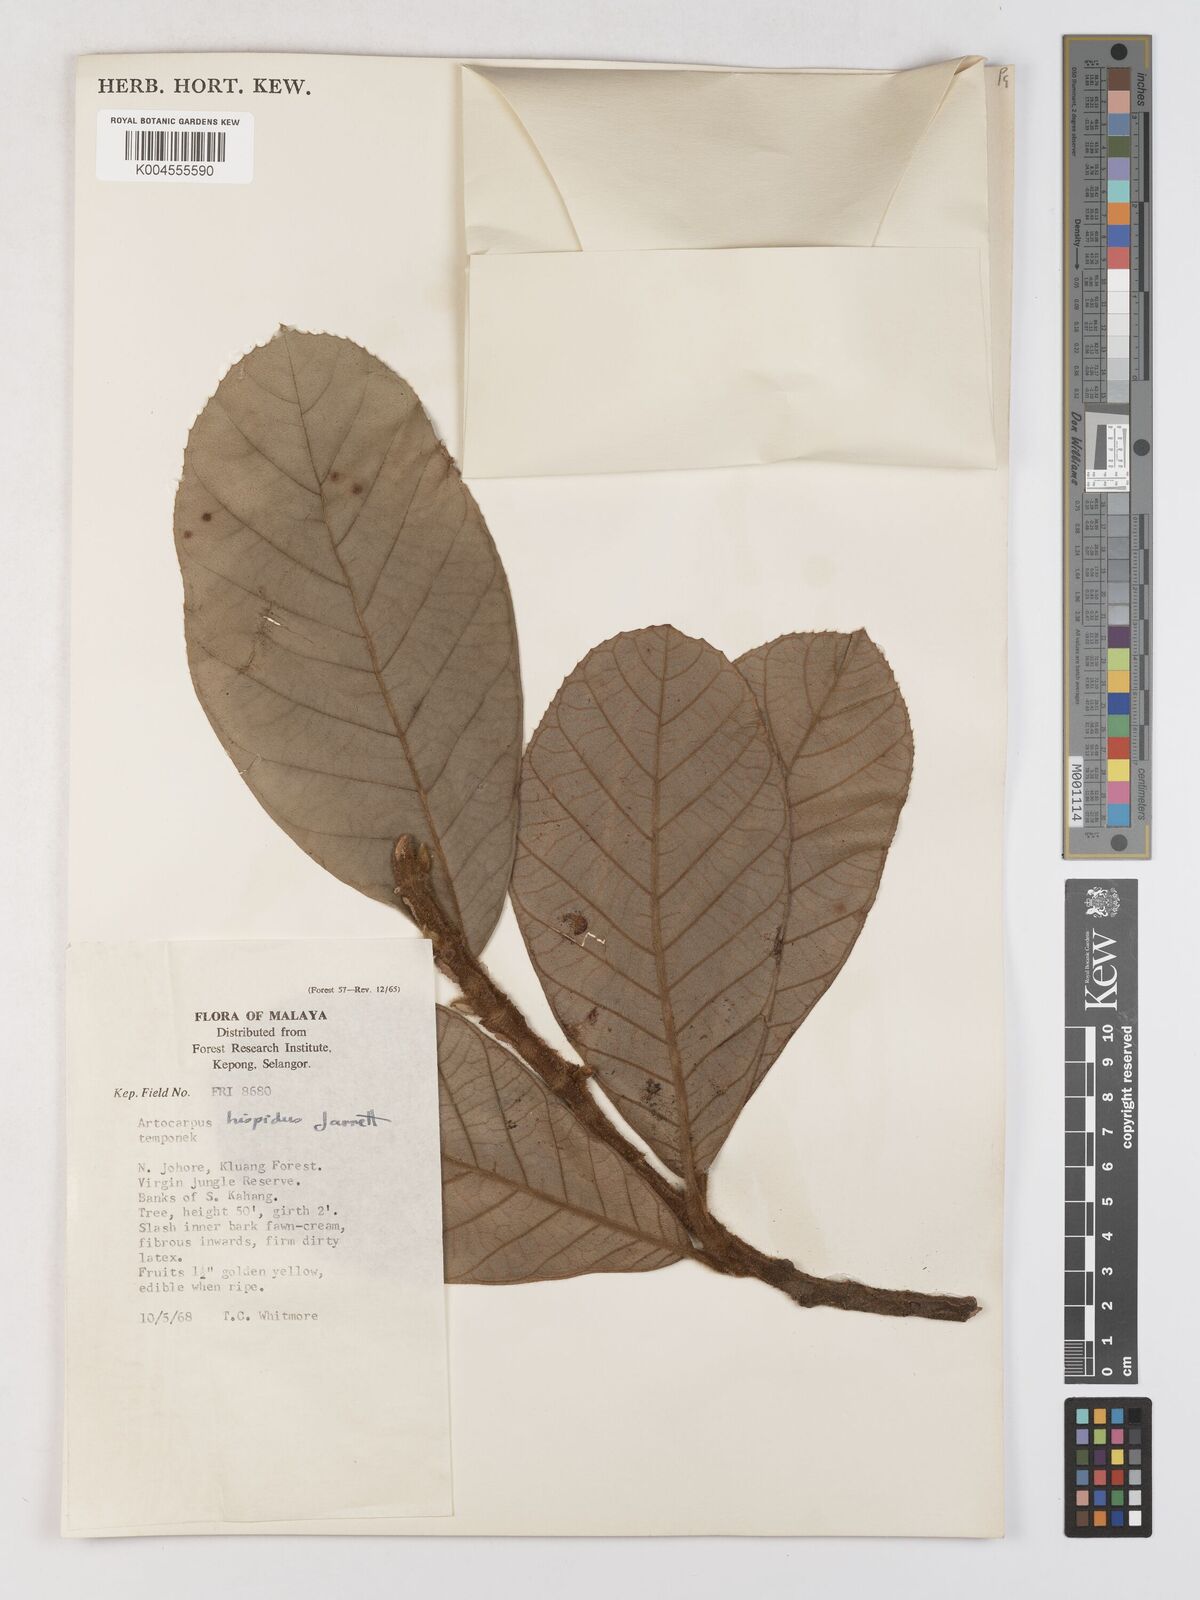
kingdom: Plantae
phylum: Tracheophyta
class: Magnoliopsida
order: Rosales
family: Moraceae
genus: Artocarpus
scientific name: Artocarpus hispidus
